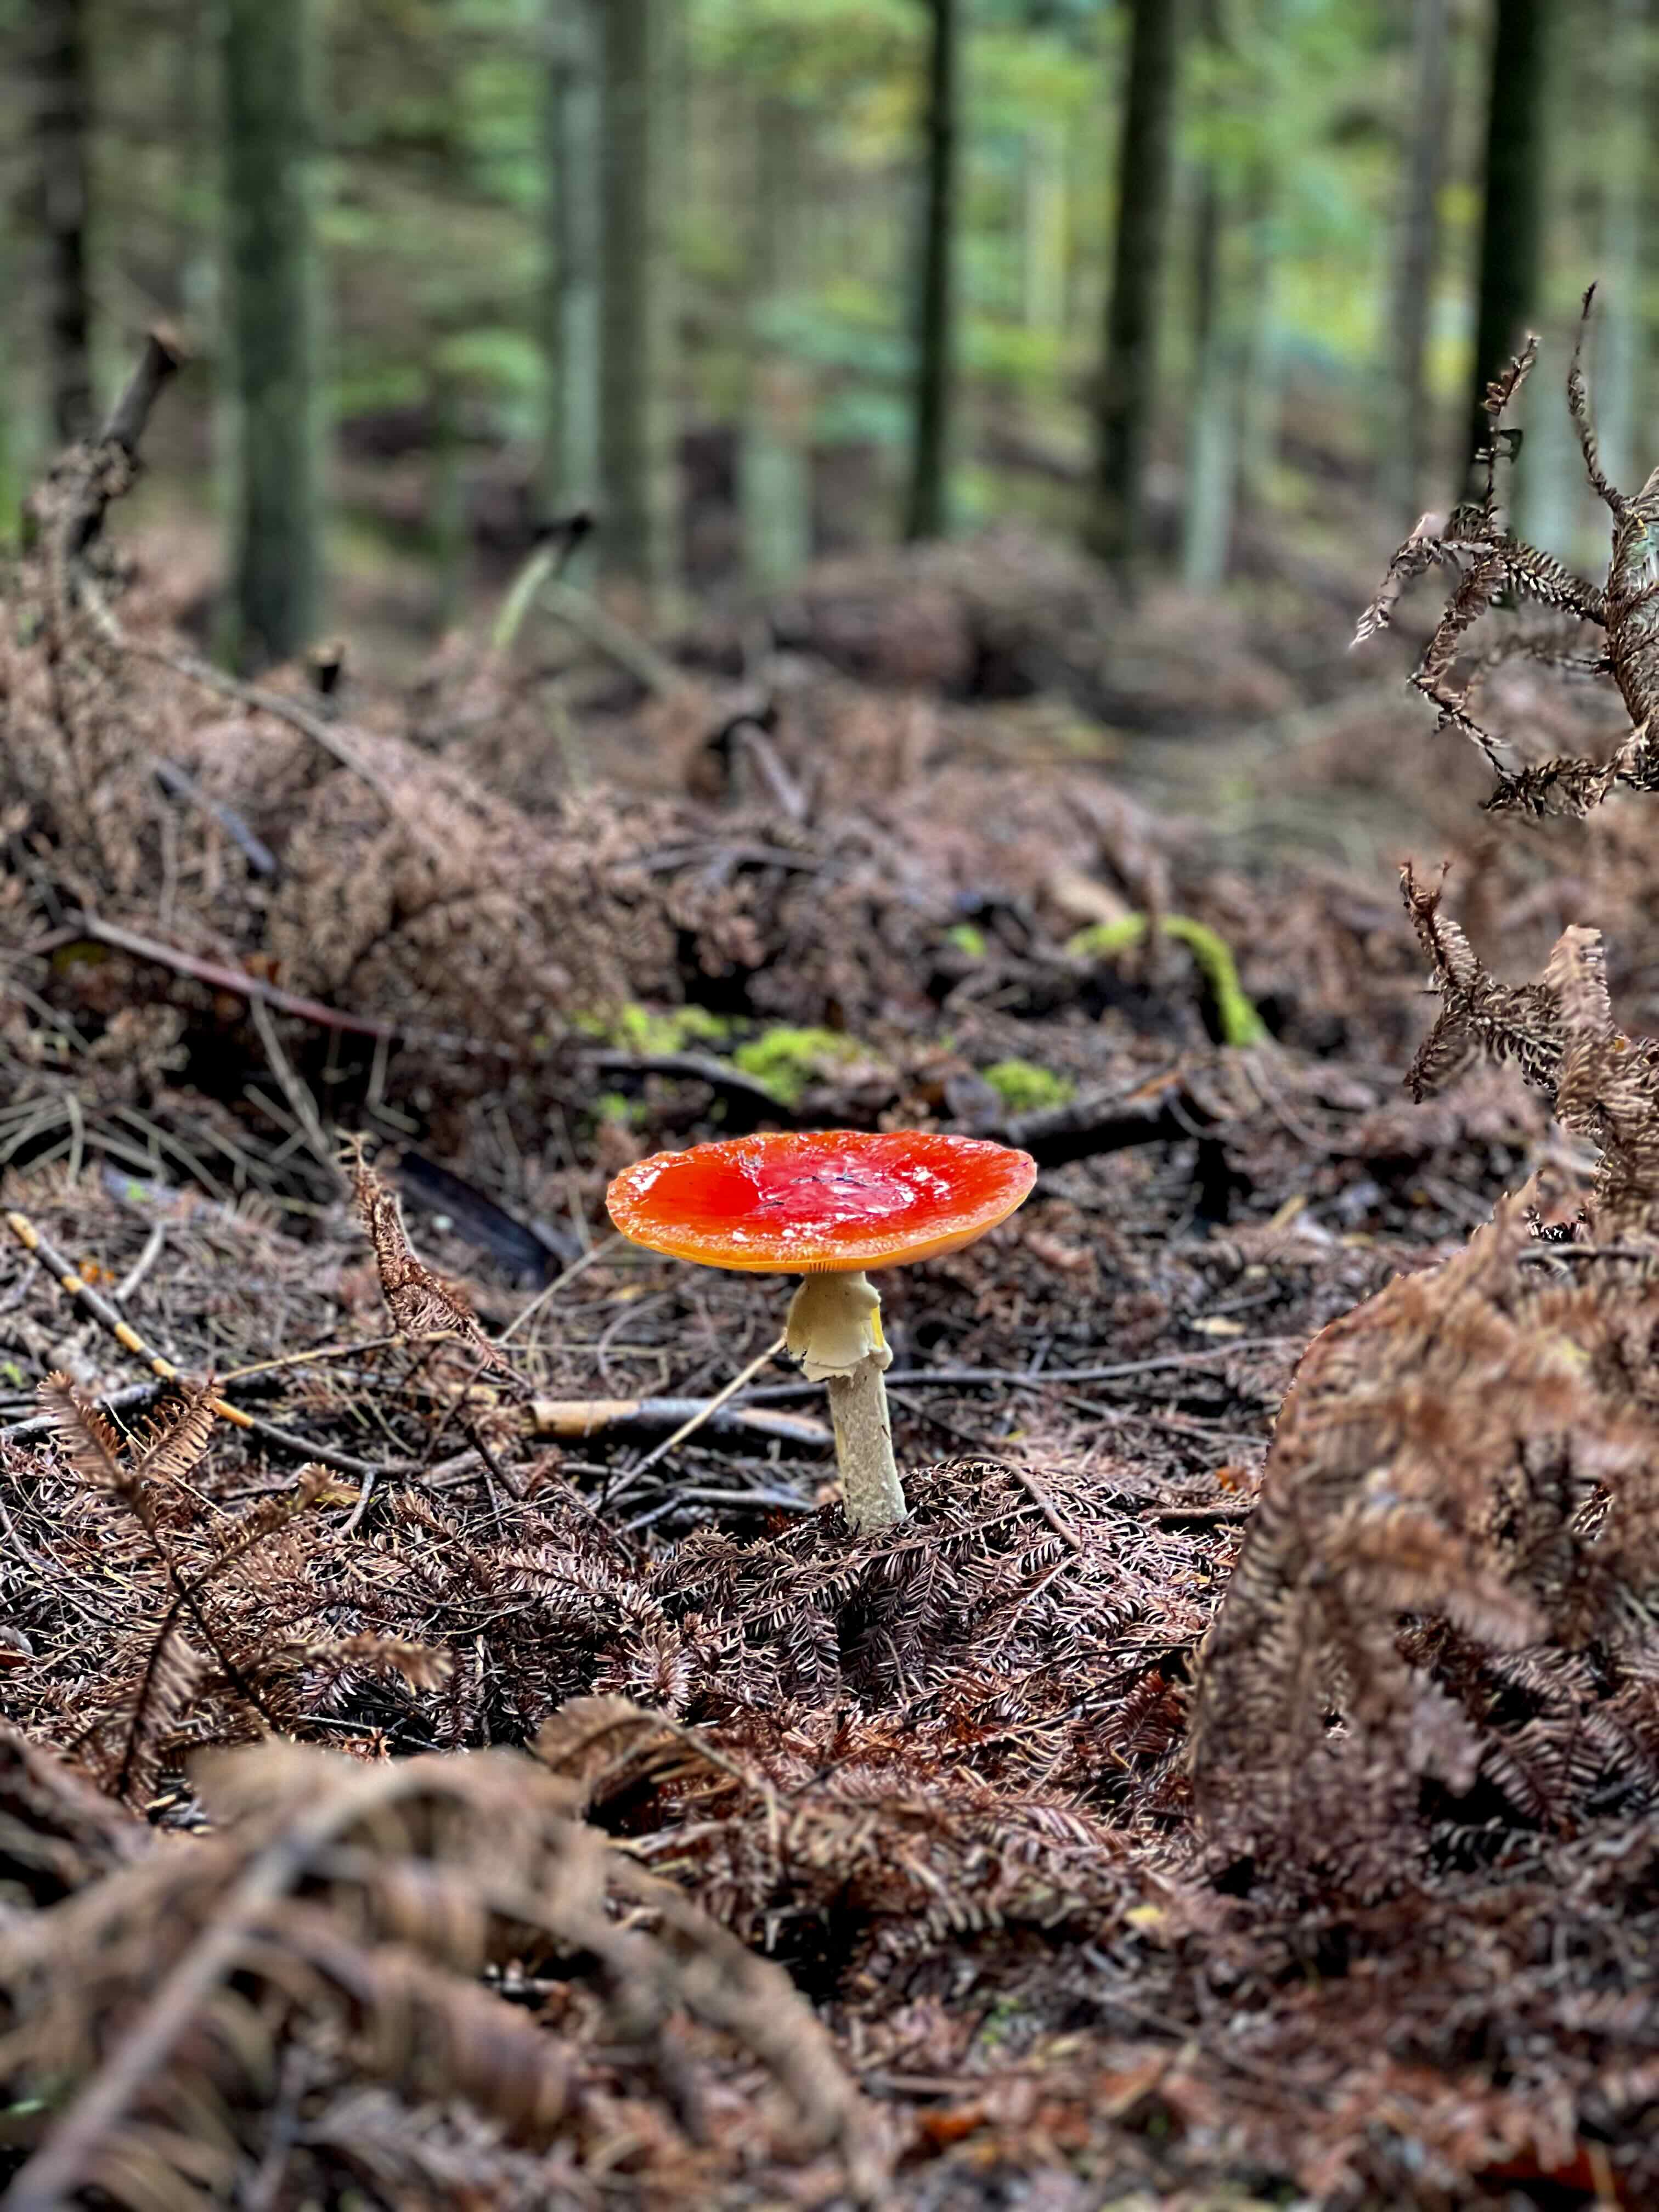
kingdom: Fungi
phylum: Basidiomycota
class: Agaricomycetes
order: Agaricales
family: Amanitaceae
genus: Amanita
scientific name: Amanita muscaria
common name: rød fluesvamp
